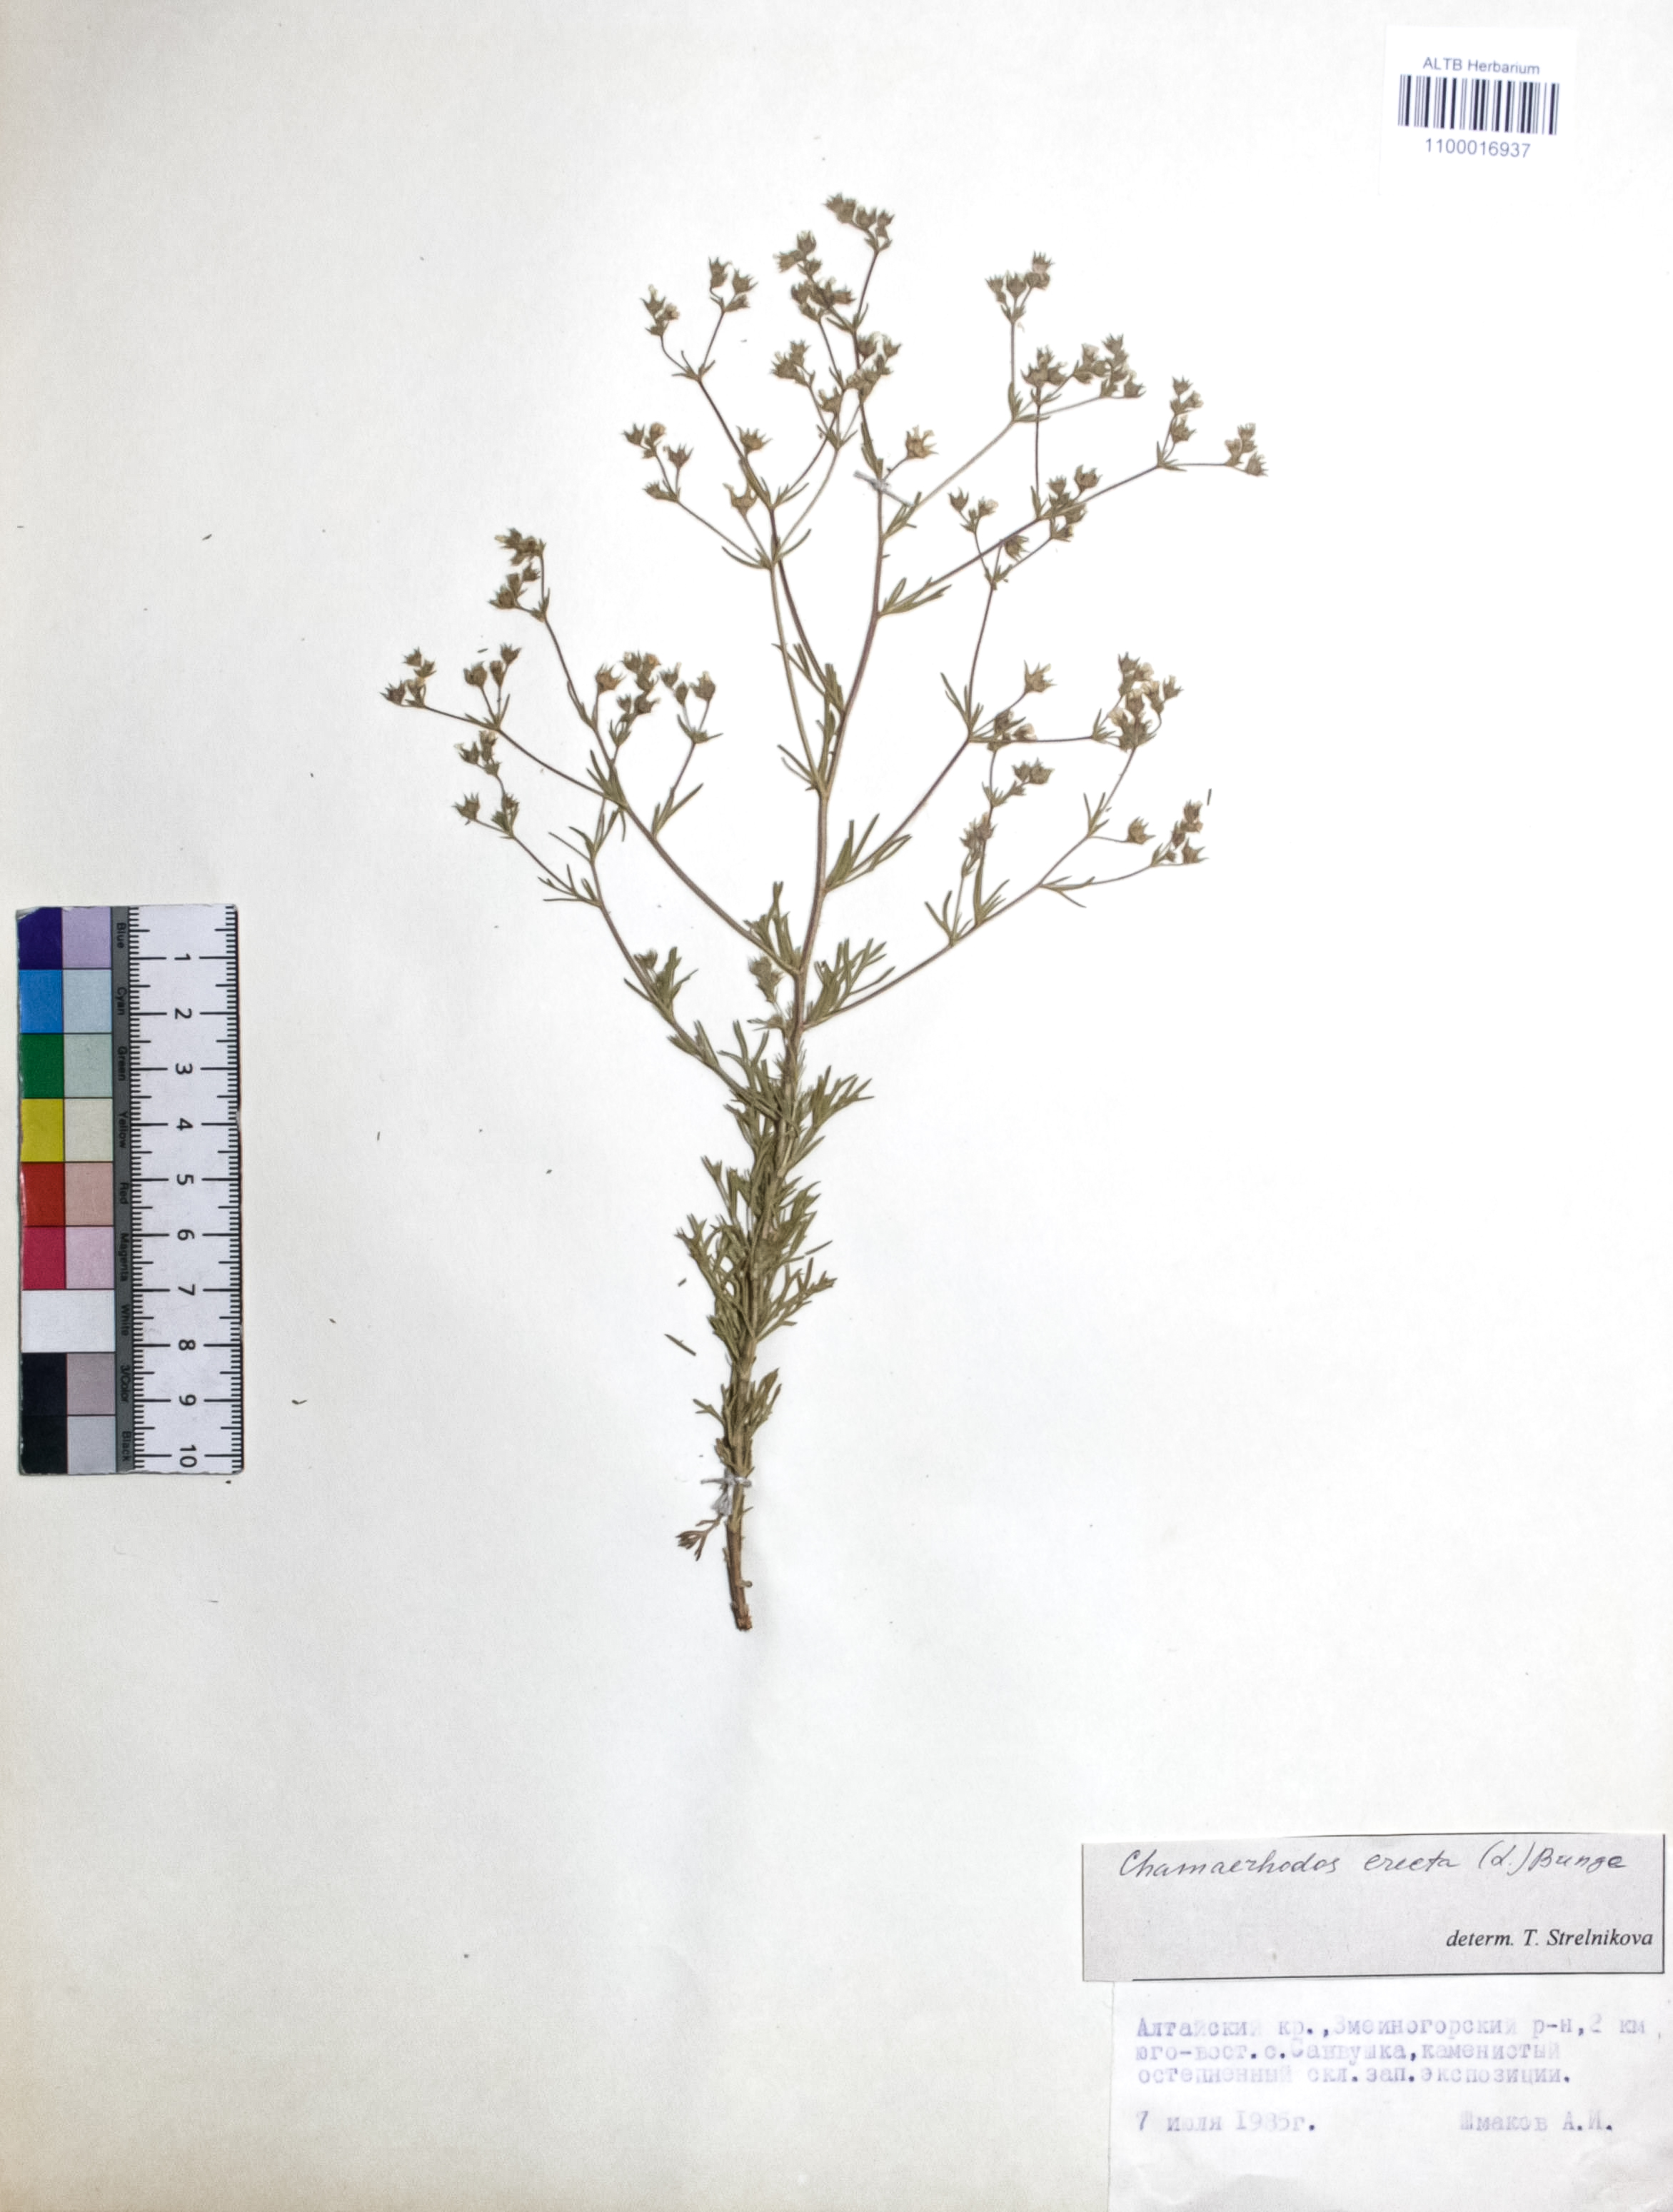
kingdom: Plantae
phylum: Tracheophyta
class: Magnoliopsida
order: Rosales
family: Rosaceae
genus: Chamaerhodos
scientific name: Chamaerhodos erecta
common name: American chamaerhodos
